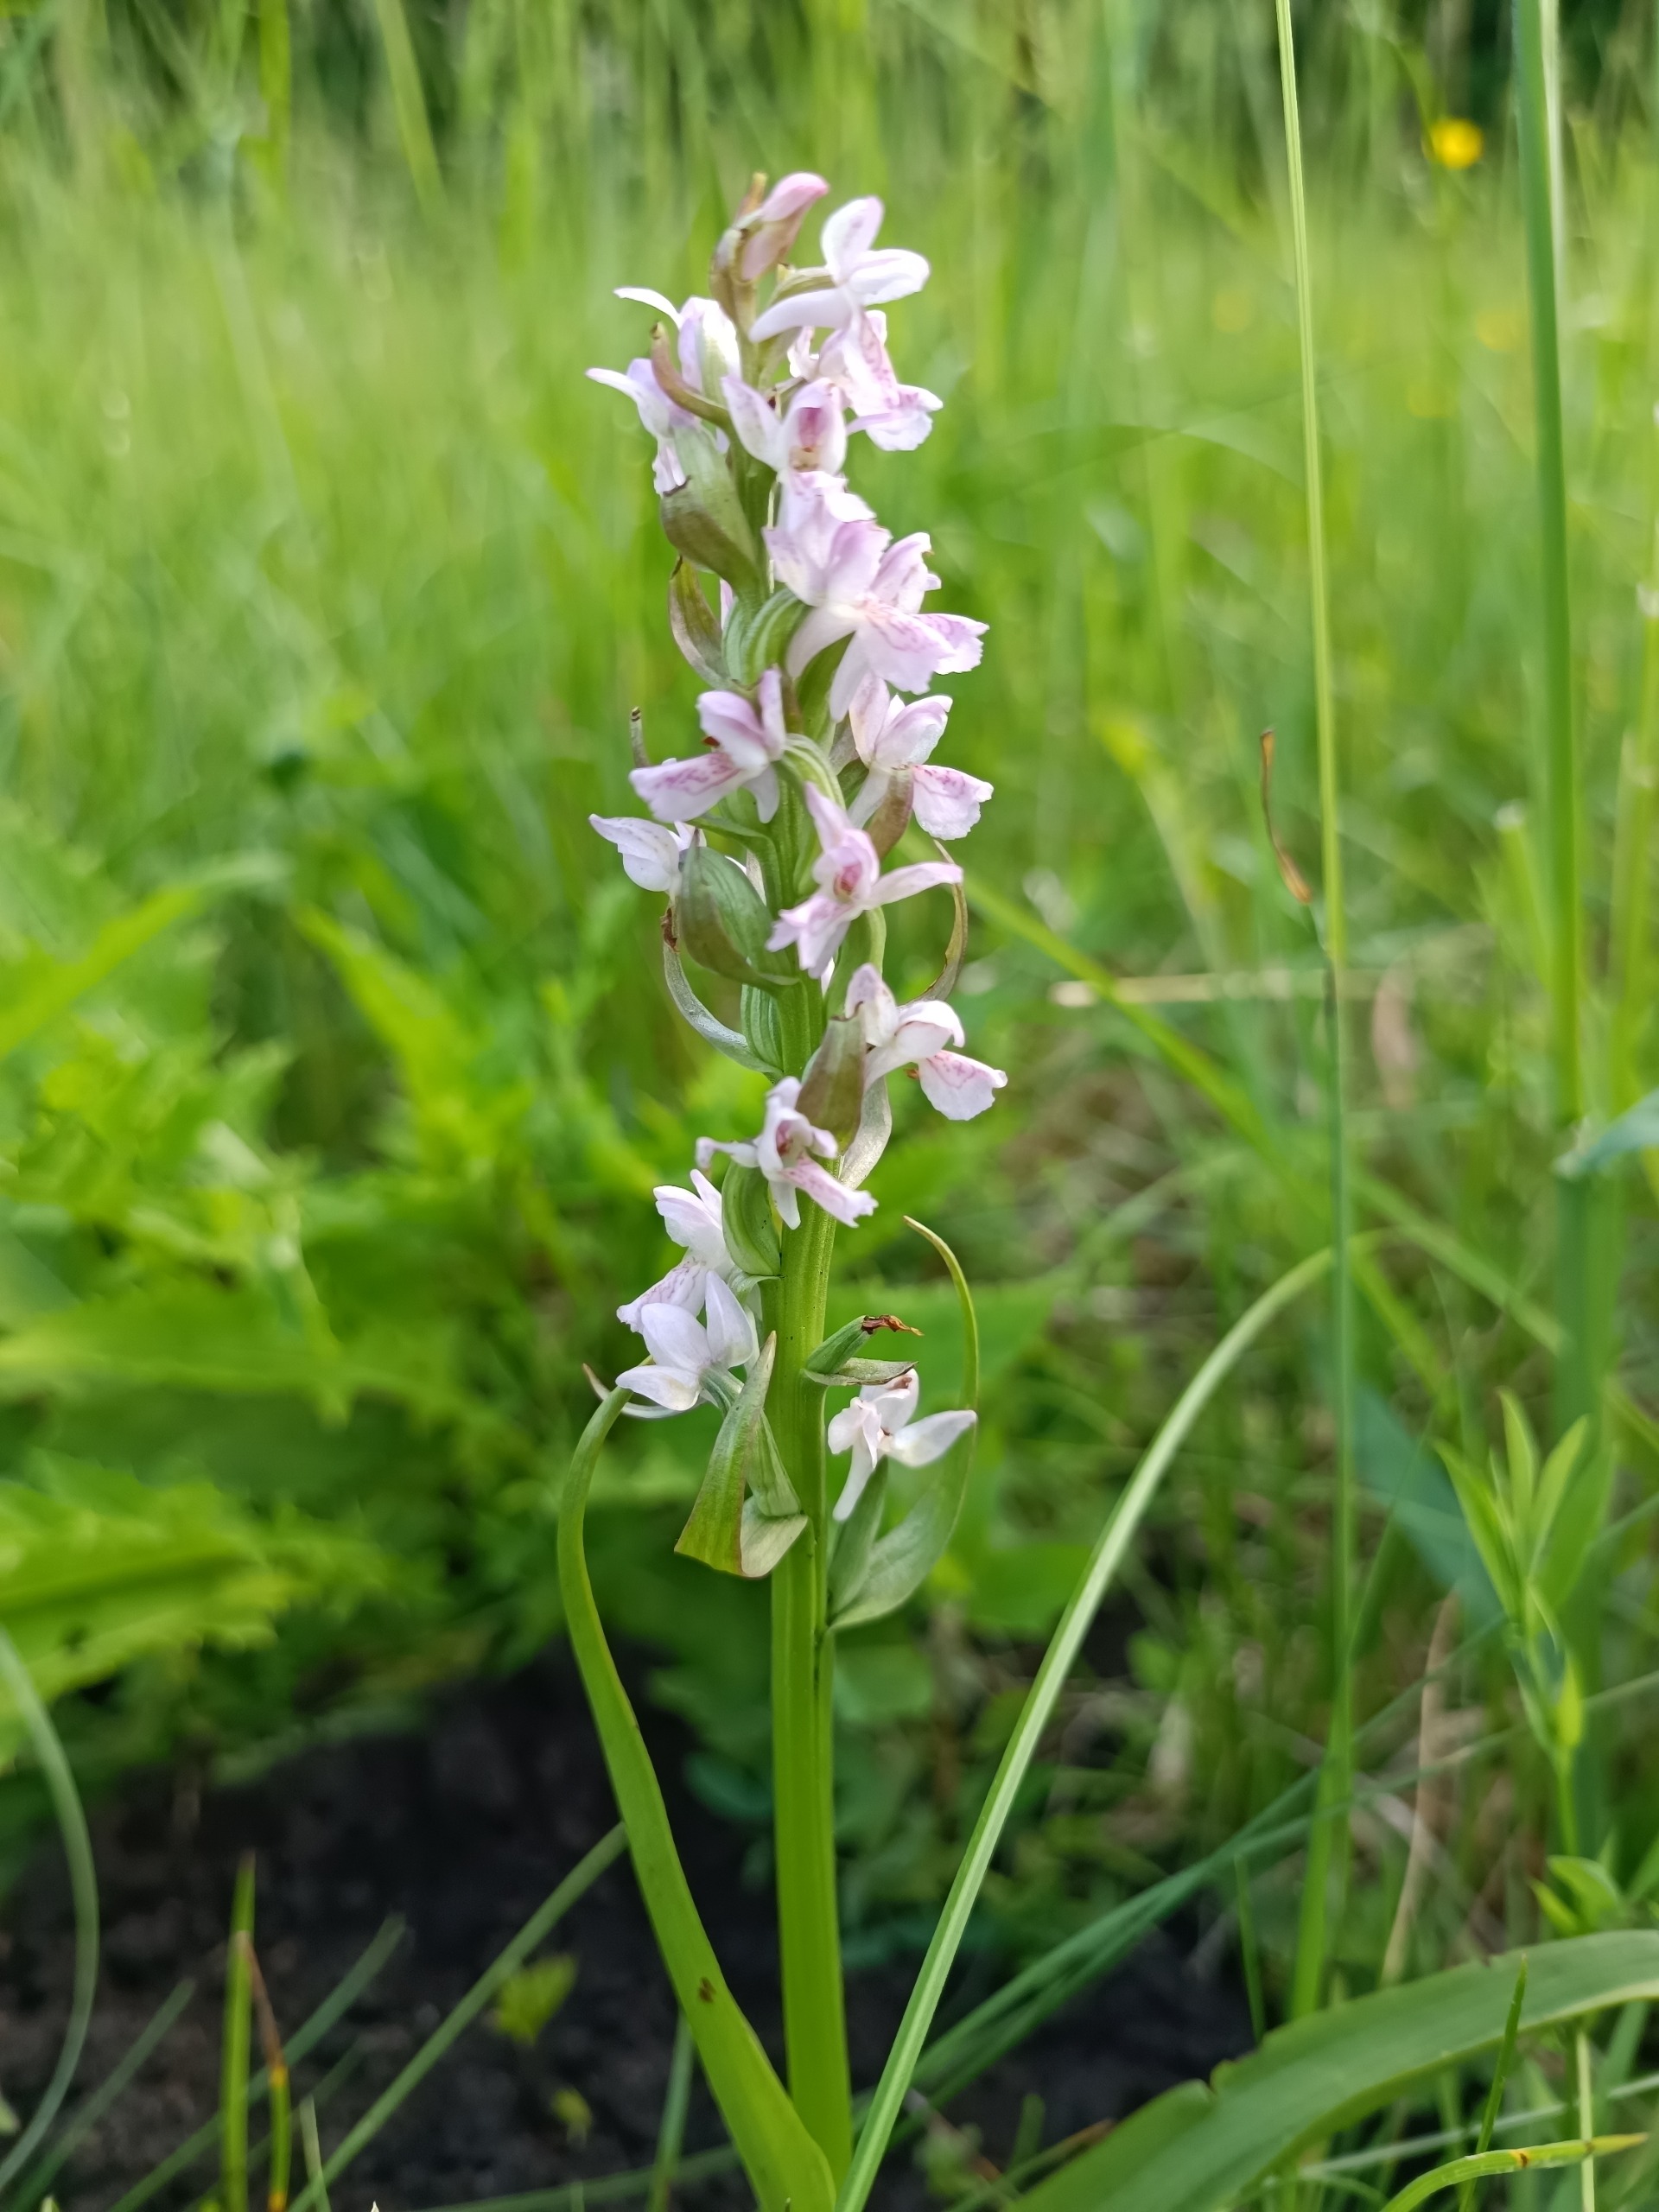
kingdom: Plantae
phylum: Tracheophyta
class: Liliopsida
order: Asparagales
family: Orchidaceae
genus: Dactylorhiza
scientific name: Dactylorhiza incarnata
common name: Kødfarvet gøgeurt
